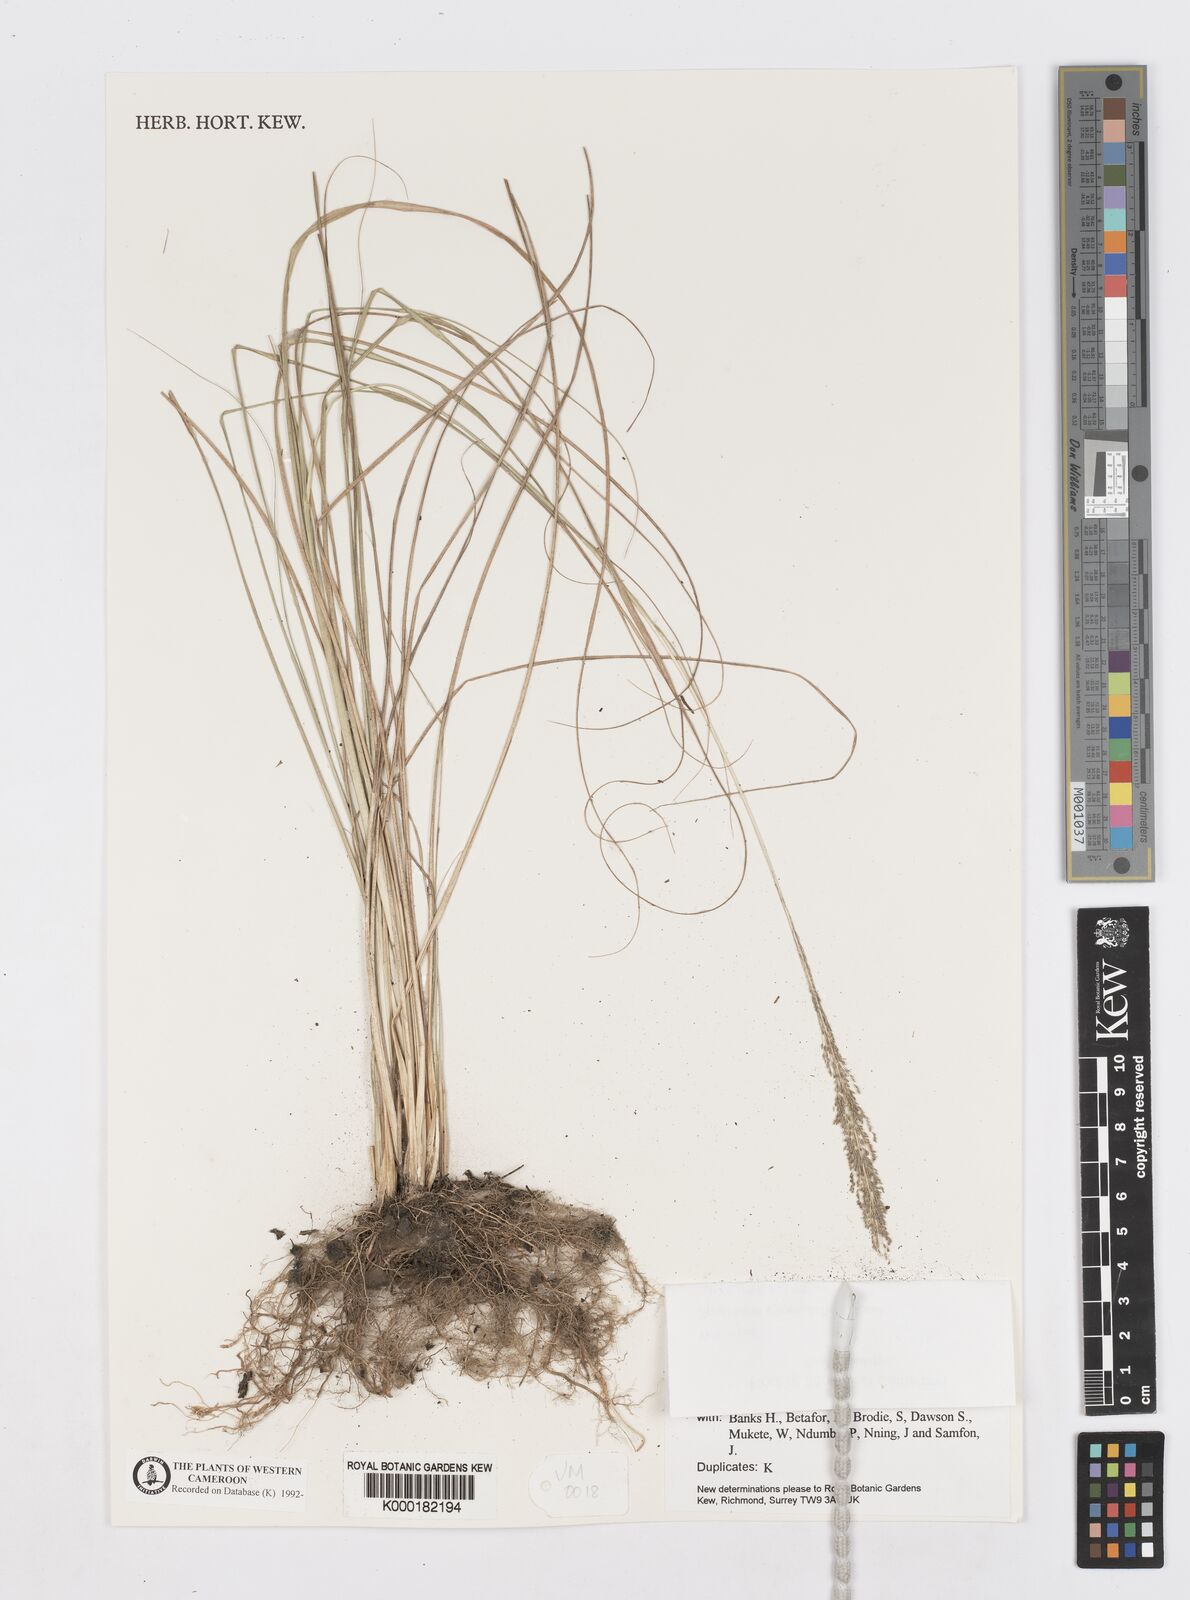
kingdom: Plantae
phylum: Tracheophyta
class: Liliopsida
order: Poales
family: Poaceae
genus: Sporobolus
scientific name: Sporobolus pyramidalis
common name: West indian dropseed
